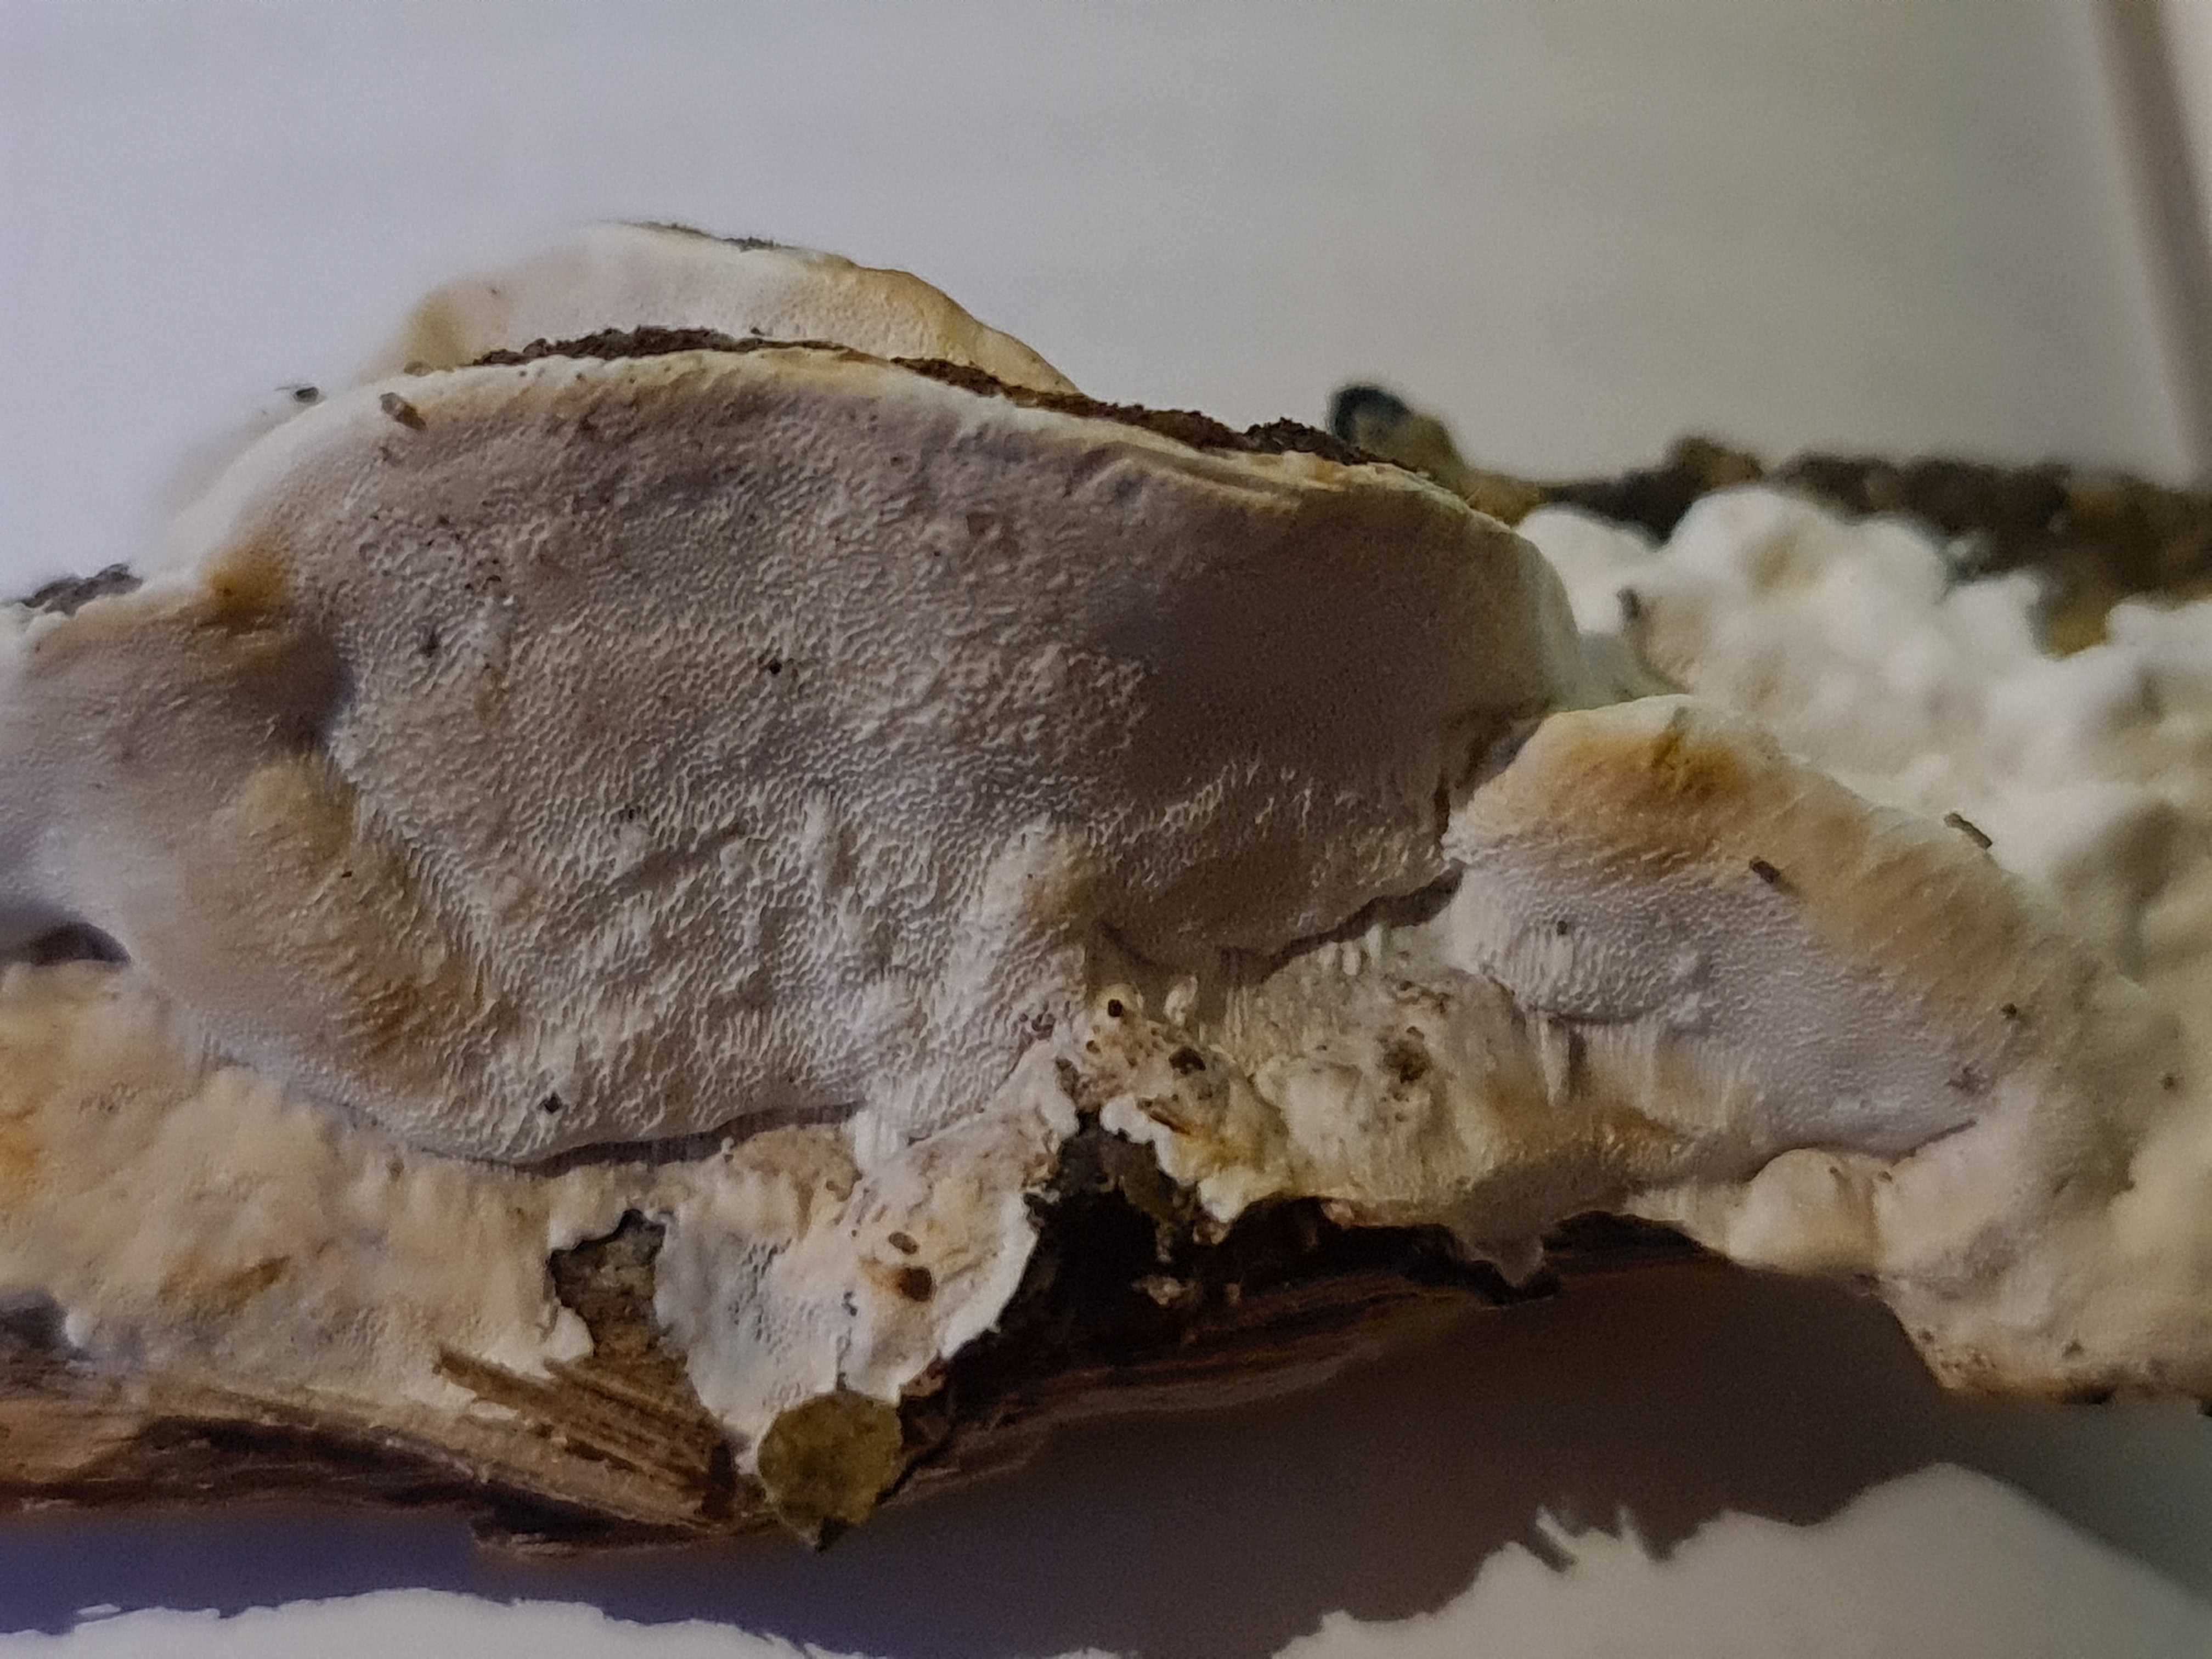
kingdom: Fungi
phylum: Basidiomycota
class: Agaricomycetes
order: Polyporales
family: Incrustoporiaceae
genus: Skeletocutis
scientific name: Skeletocutis nemoralis
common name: stor krystalporesvamp
